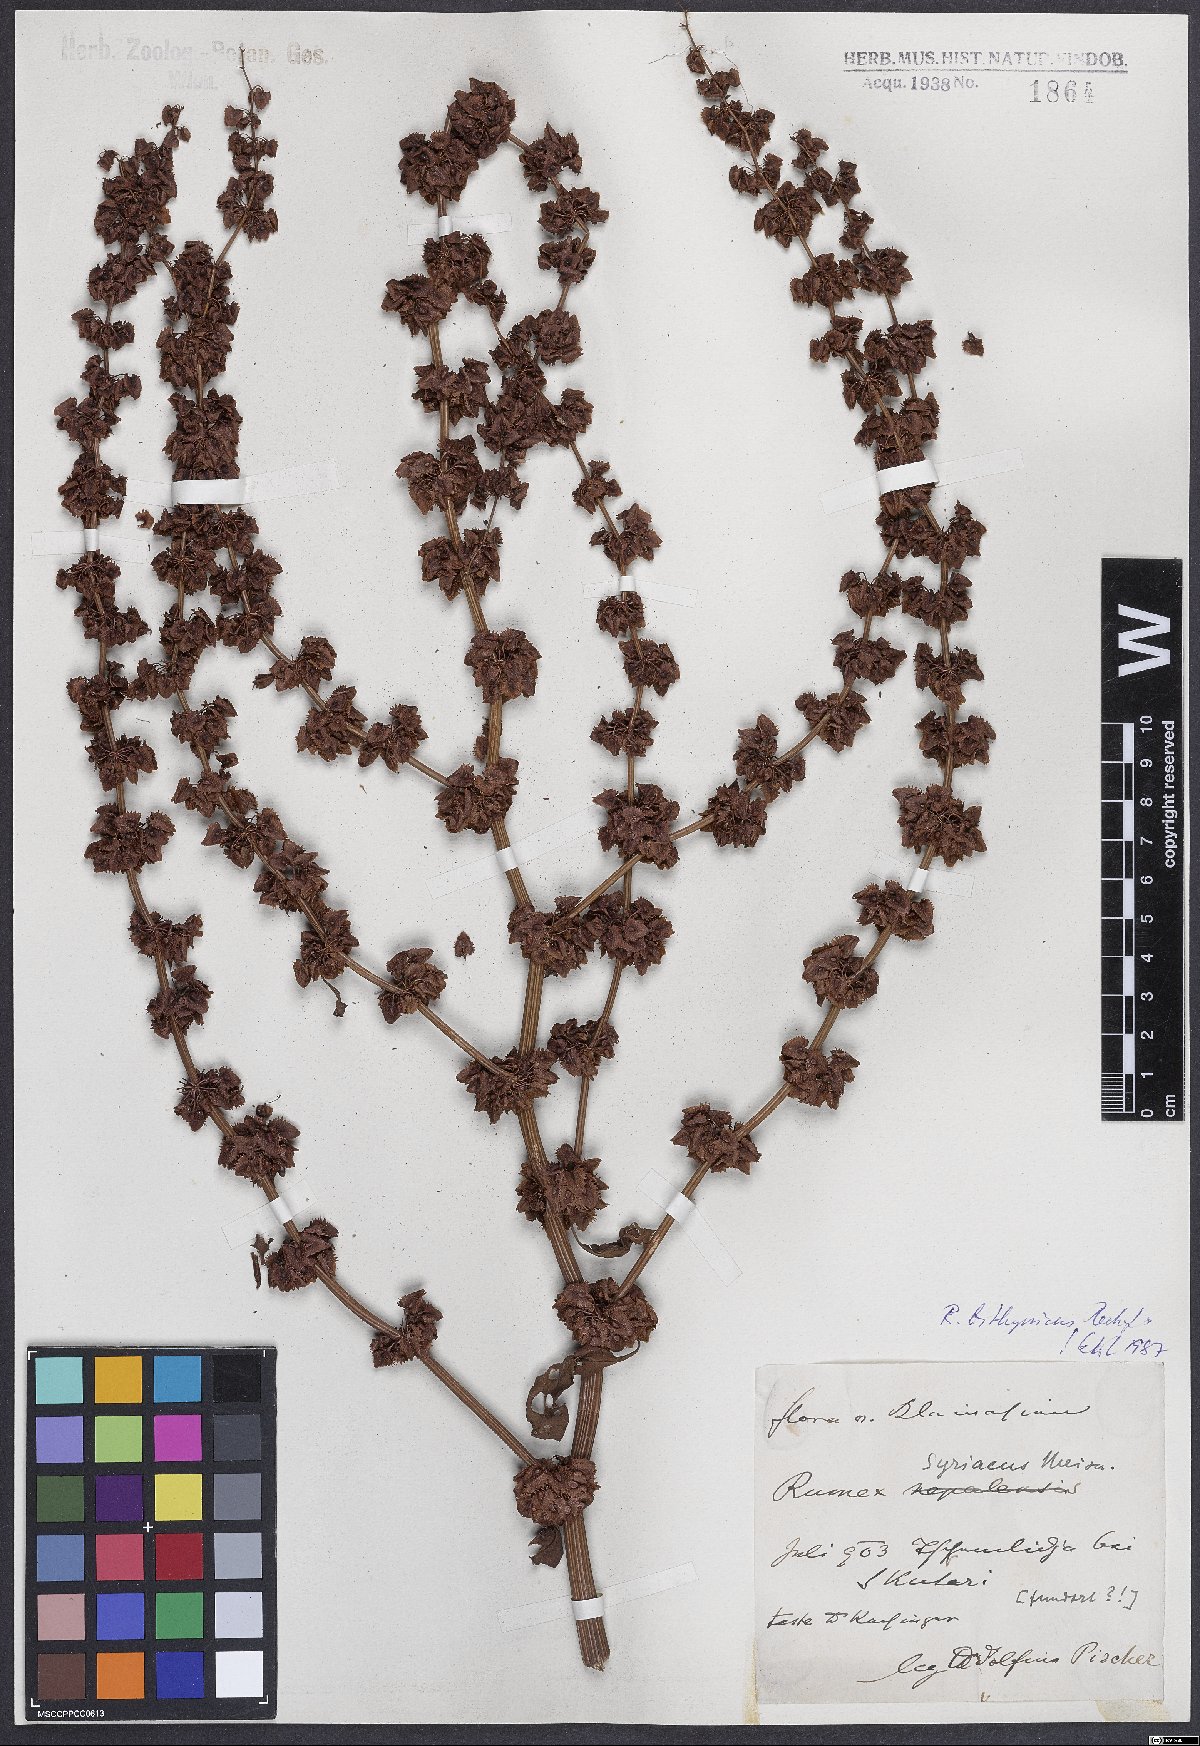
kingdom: Plantae
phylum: Tracheophyta
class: Magnoliopsida
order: Caryophyllales
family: Polygonaceae
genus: Rumex
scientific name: Rumex bithynicus
